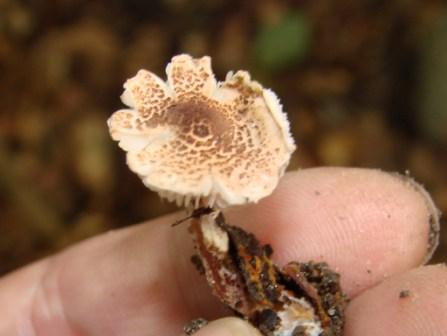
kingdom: Fungi
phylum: Basidiomycota
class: Agaricomycetes
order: Agaricales
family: Agaricaceae
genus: Lepiota
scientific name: Lepiota castanea
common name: kastaniebrun parasolhat
